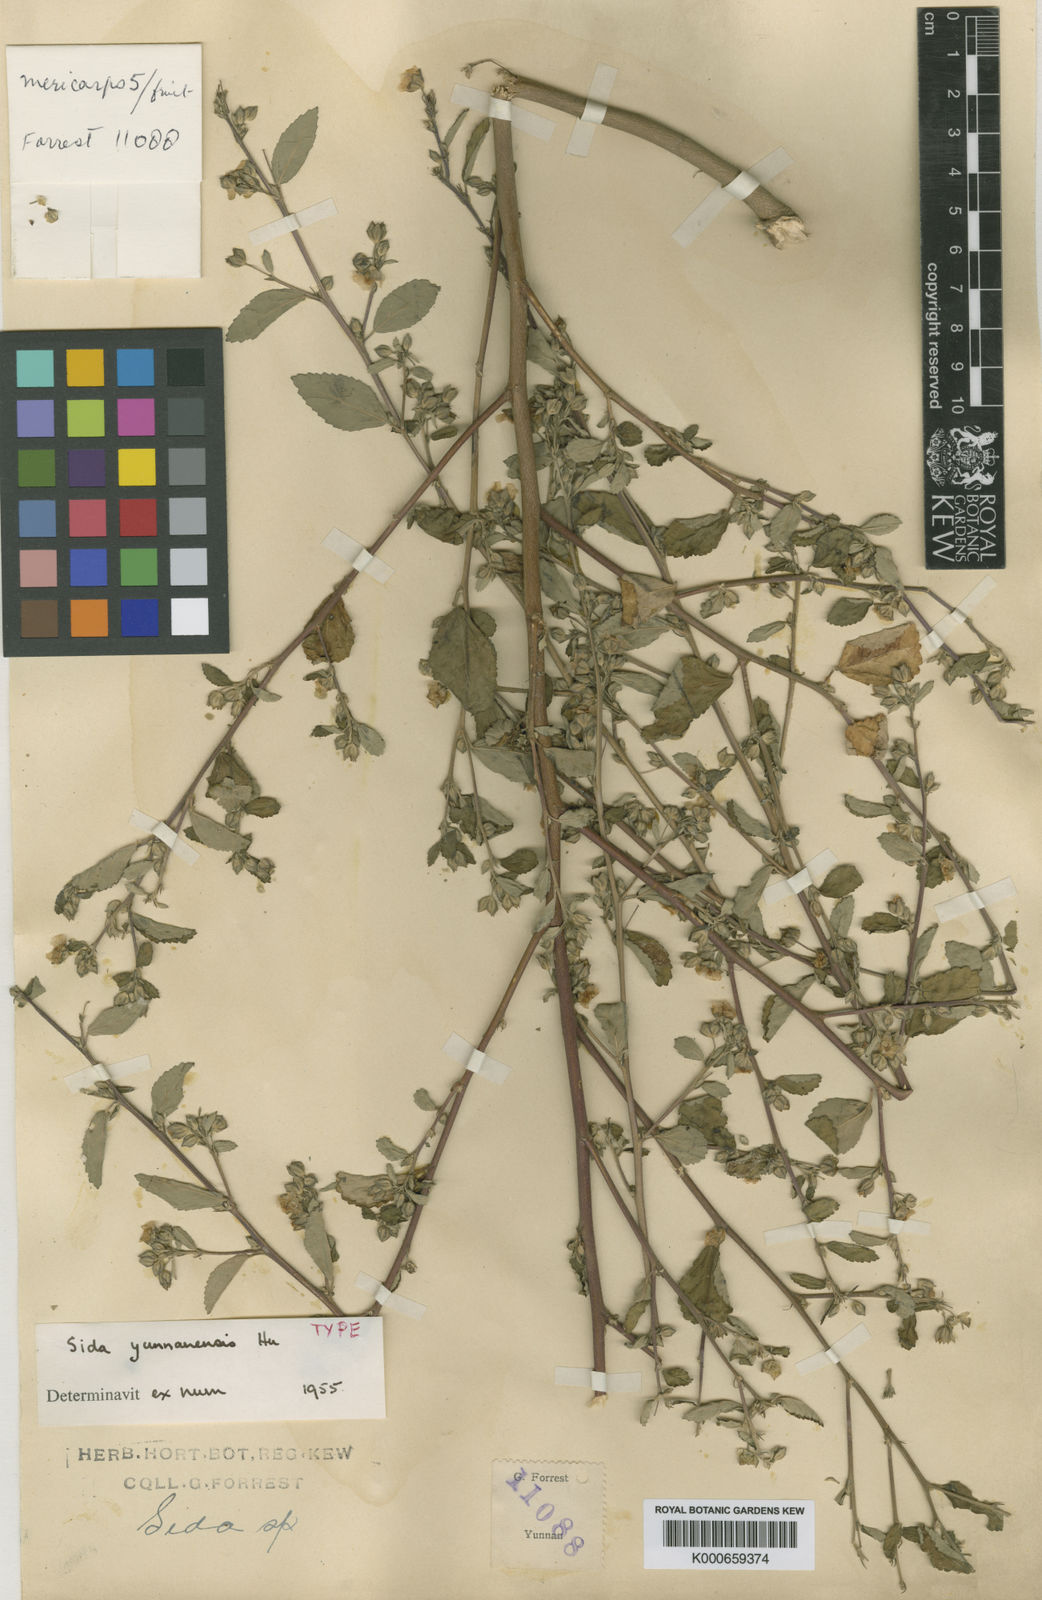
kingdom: Plantae
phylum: Tracheophyta
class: Magnoliopsida
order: Malvales
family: Malvaceae
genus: Sida
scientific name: Sida yunnanensis
